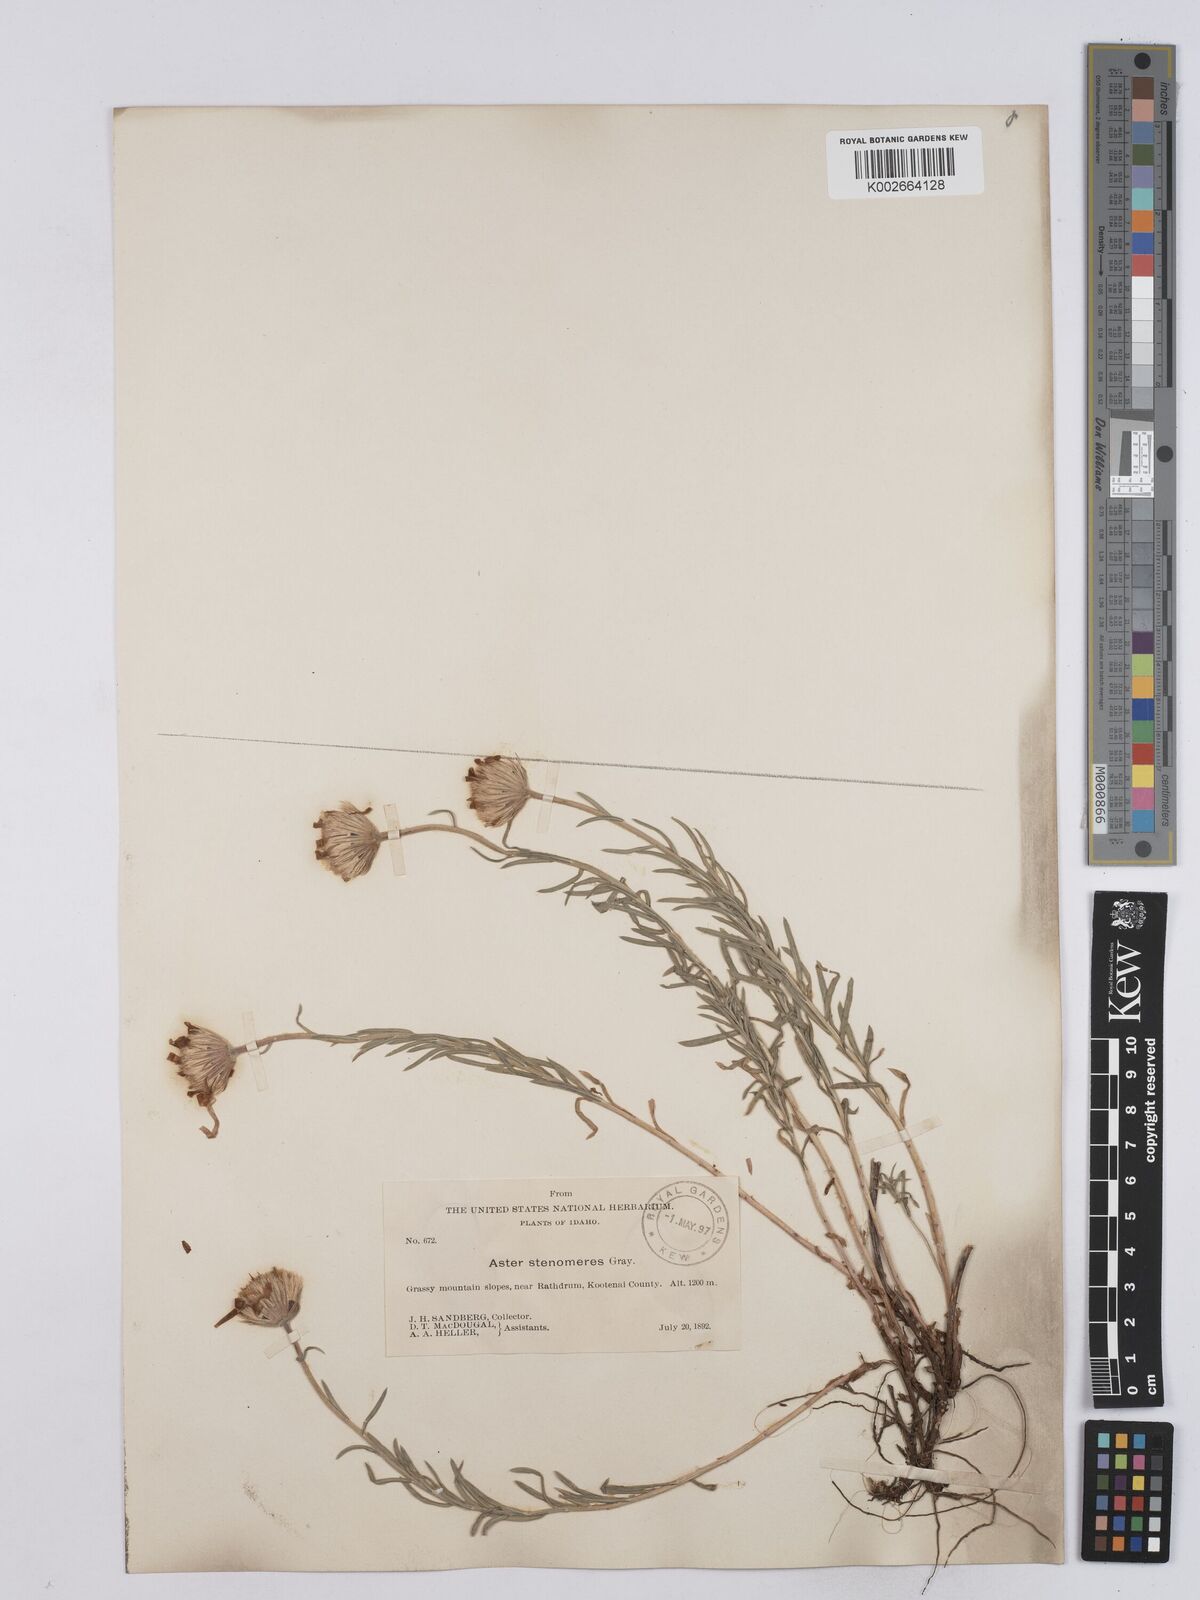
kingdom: Plantae
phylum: Tracheophyta
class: Magnoliopsida
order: Asterales
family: Asteraceae
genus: Ionactis
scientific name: Ionactis stenomeres
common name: Rocky mountain ankle-aster
